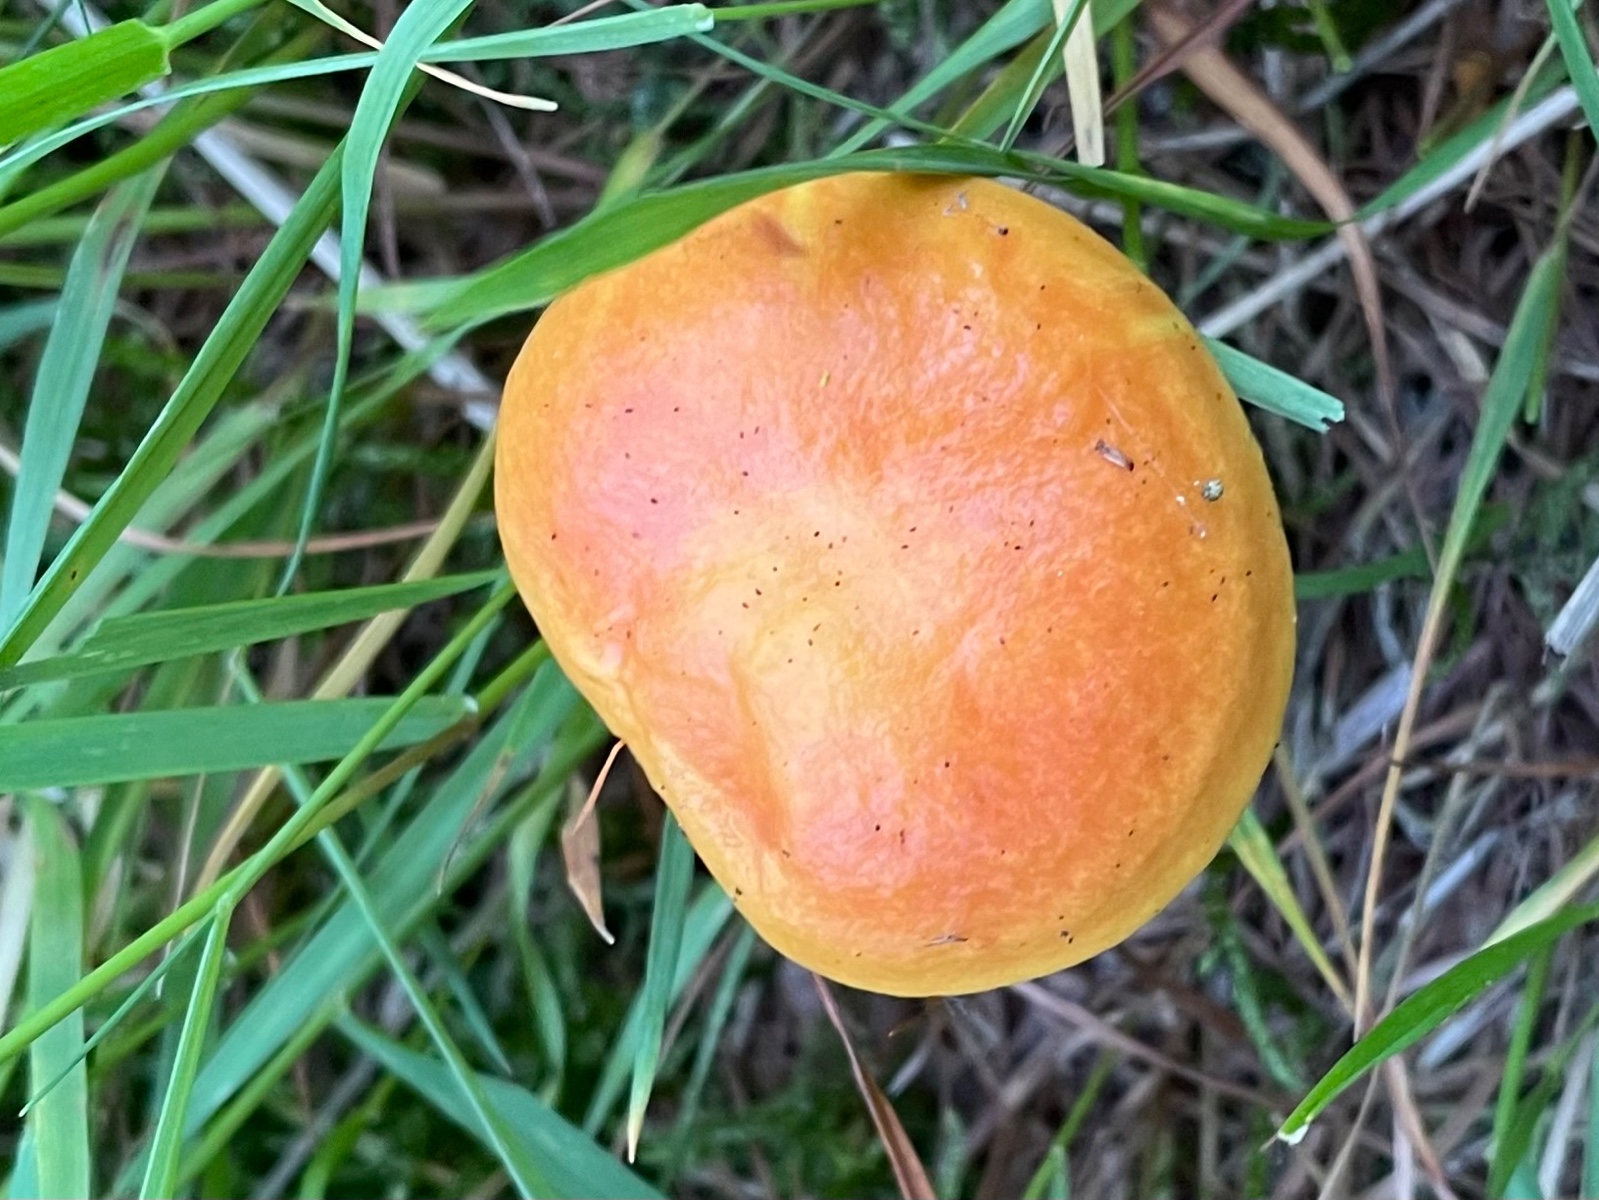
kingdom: Fungi
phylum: Basidiomycota
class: Agaricomycetes
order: Boletales
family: Suillaceae
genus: Suillus
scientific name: Suillus grevillei
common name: lærke-slimrørhat
